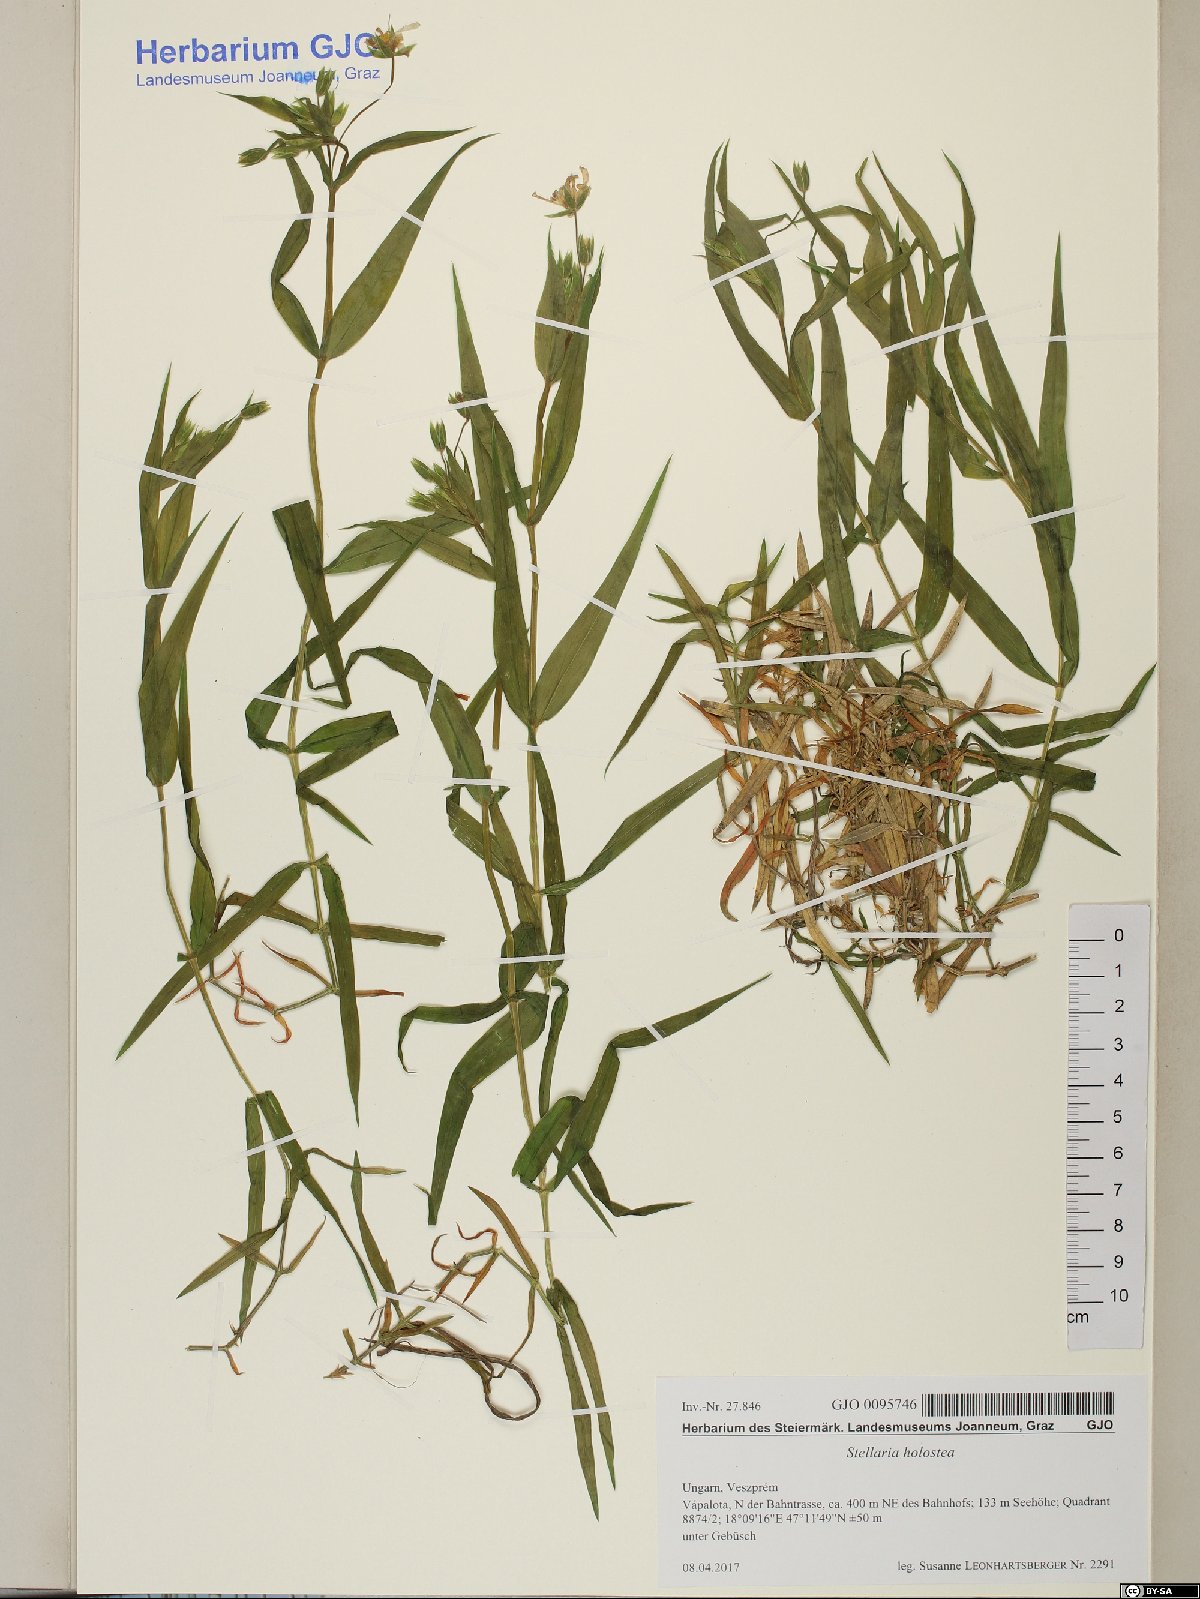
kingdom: Plantae
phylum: Tracheophyta
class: Magnoliopsida
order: Caryophyllales
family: Caryophyllaceae
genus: Rabelera
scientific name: Rabelera holostea
